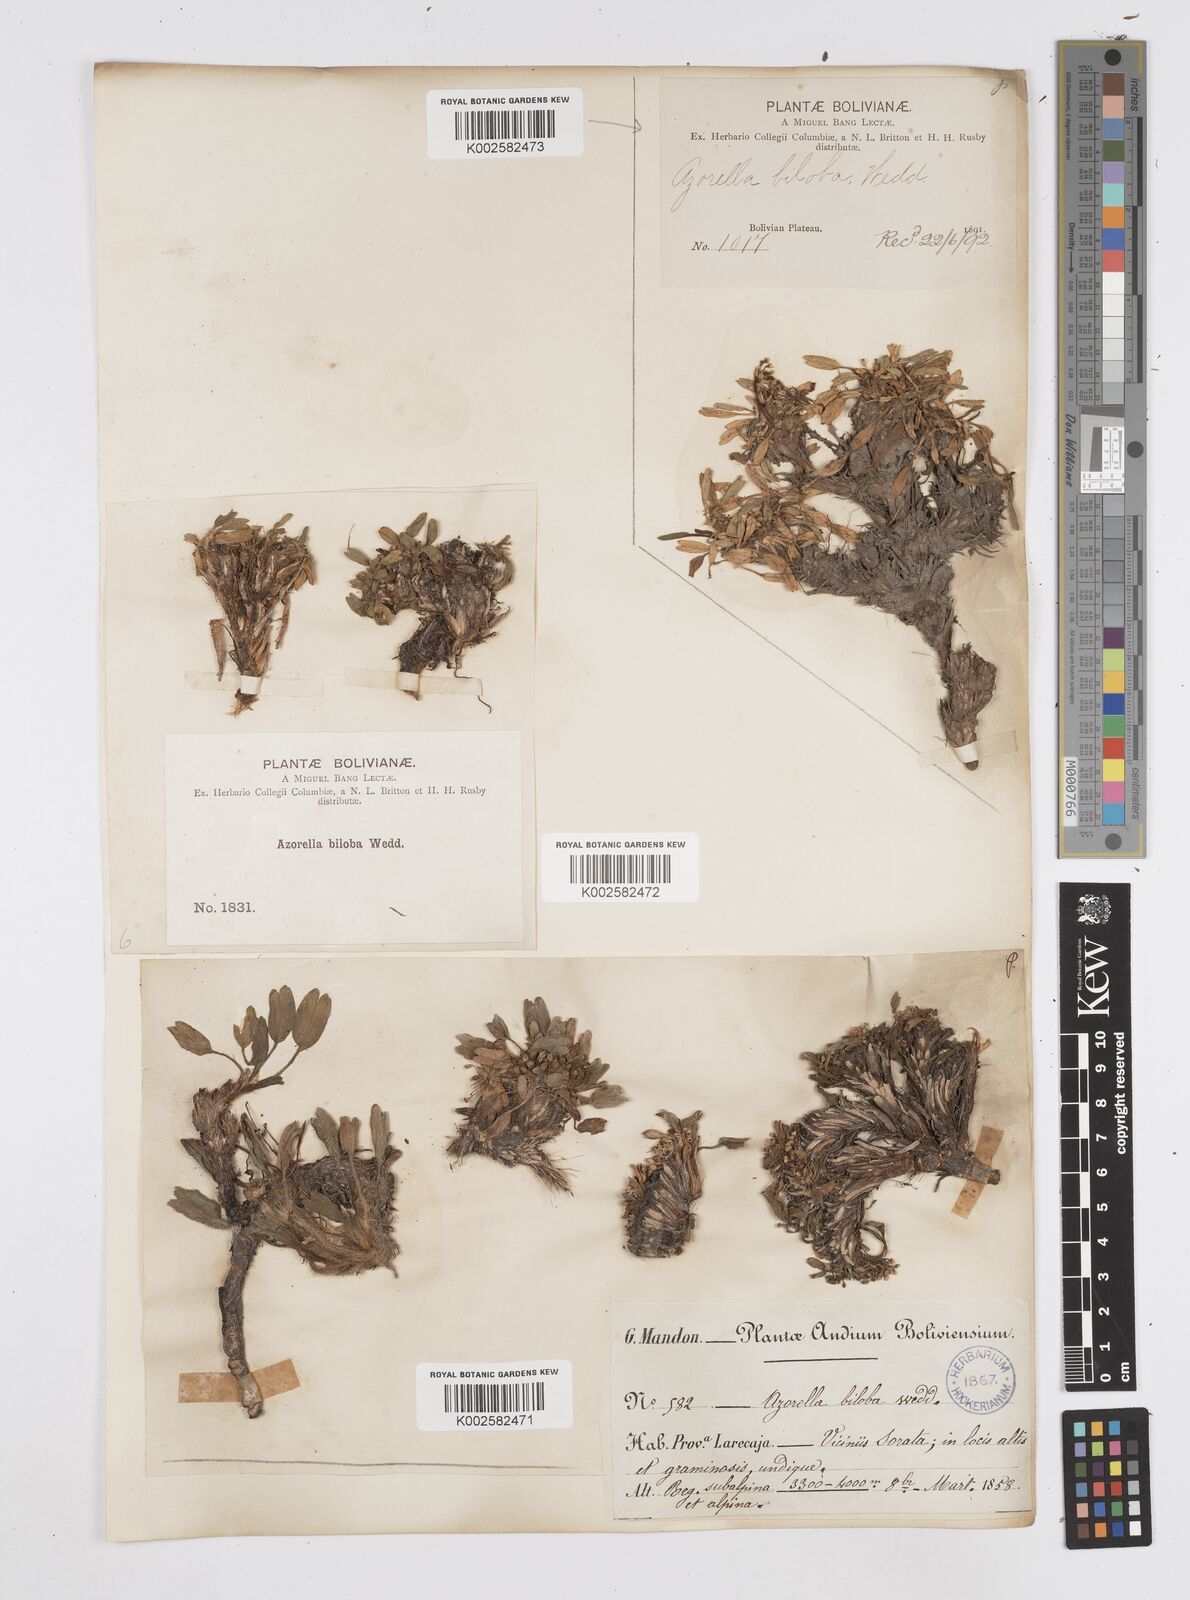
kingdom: Plantae
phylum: Tracheophyta
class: Magnoliopsida
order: Apiales
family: Apiaceae
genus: Azorella
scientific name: Azorella biloba
